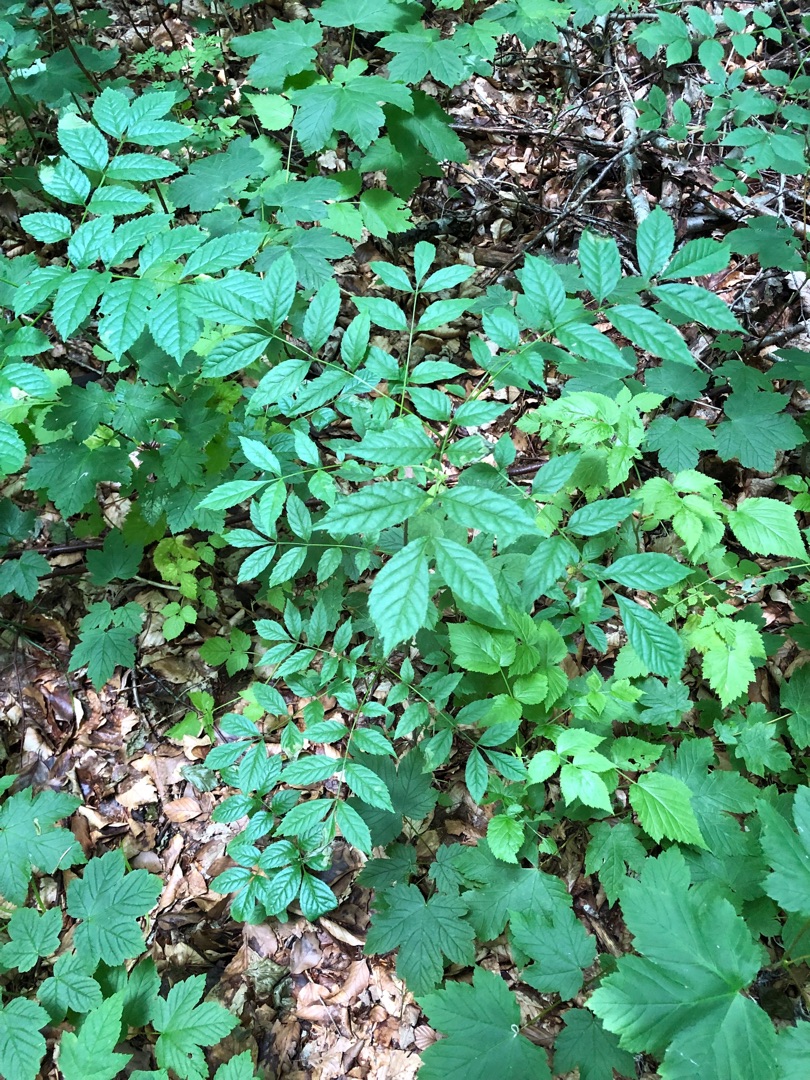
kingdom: Plantae
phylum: Tracheophyta
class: Magnoliopsida
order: Lamiales
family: Oleaceae
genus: Fraxinus
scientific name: Fraxinus excelsior
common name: Ask
